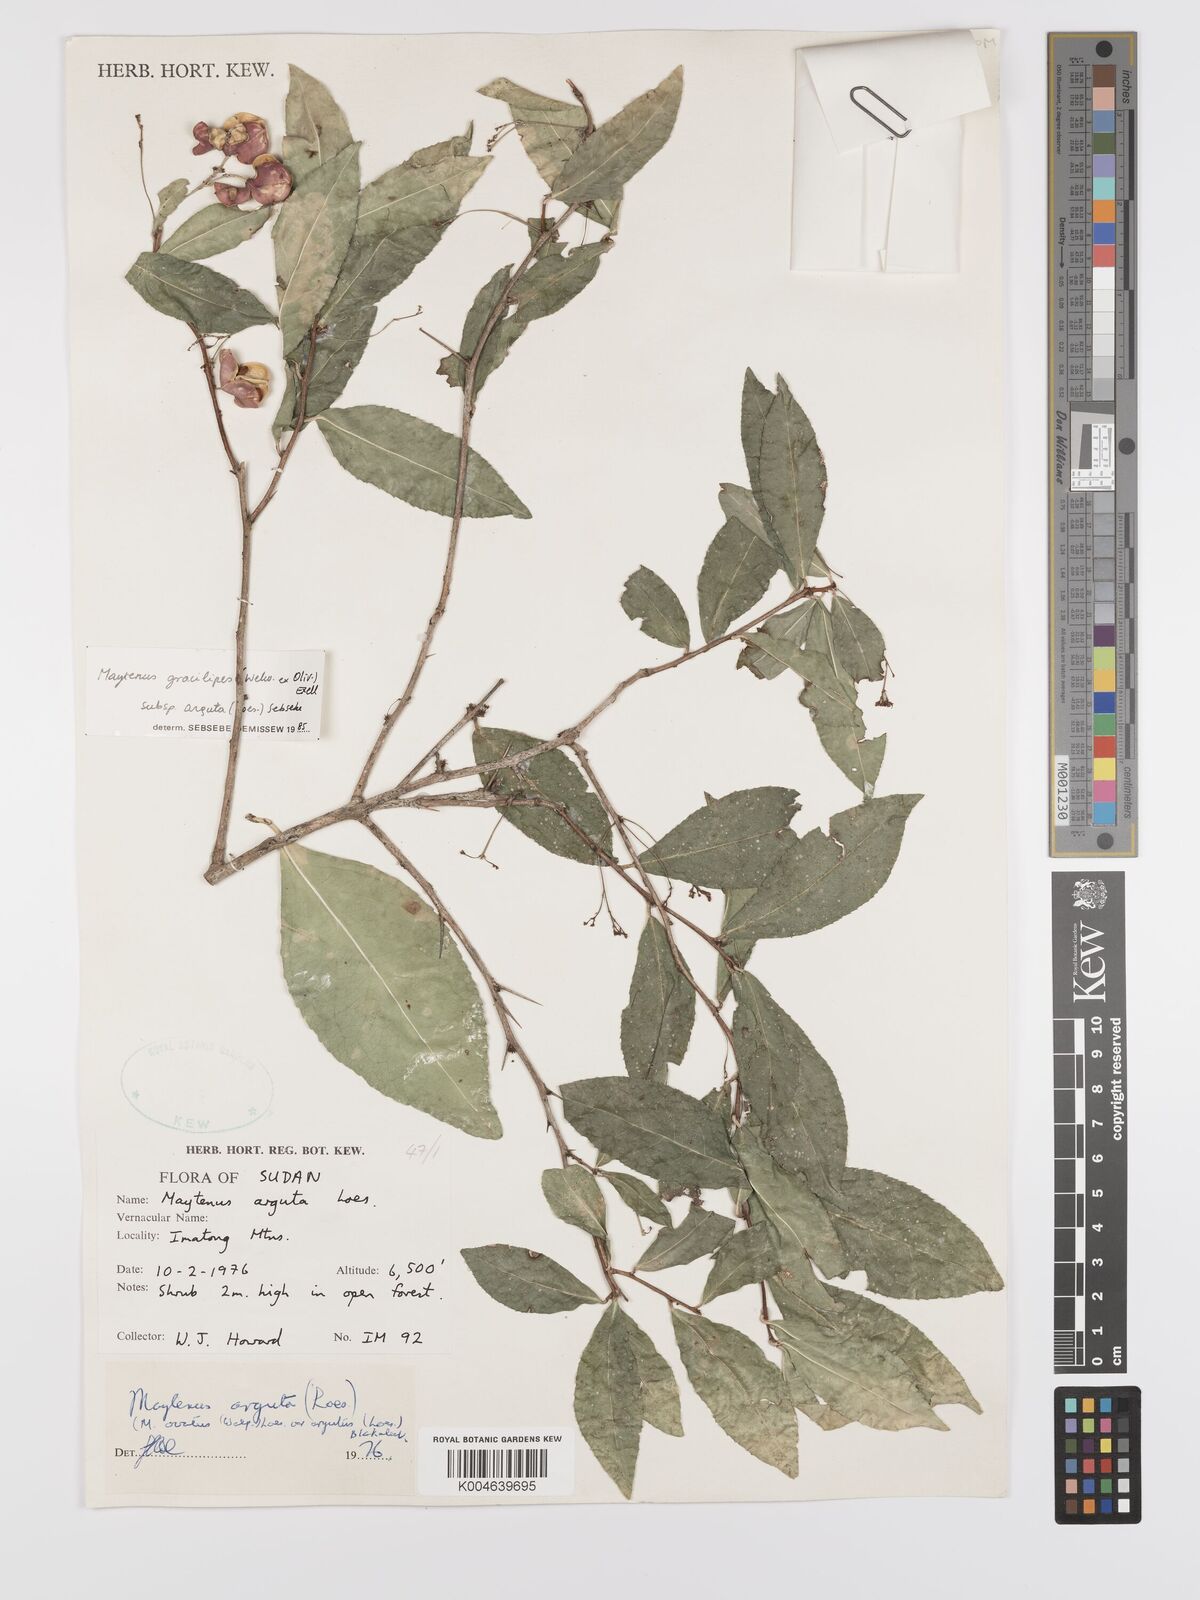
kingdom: Plantae
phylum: Tracheophyta
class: Magnoliopsida
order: Celastrales
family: Celastraceae
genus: Gymnosporia
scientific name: Gymnosporia gracilipes
